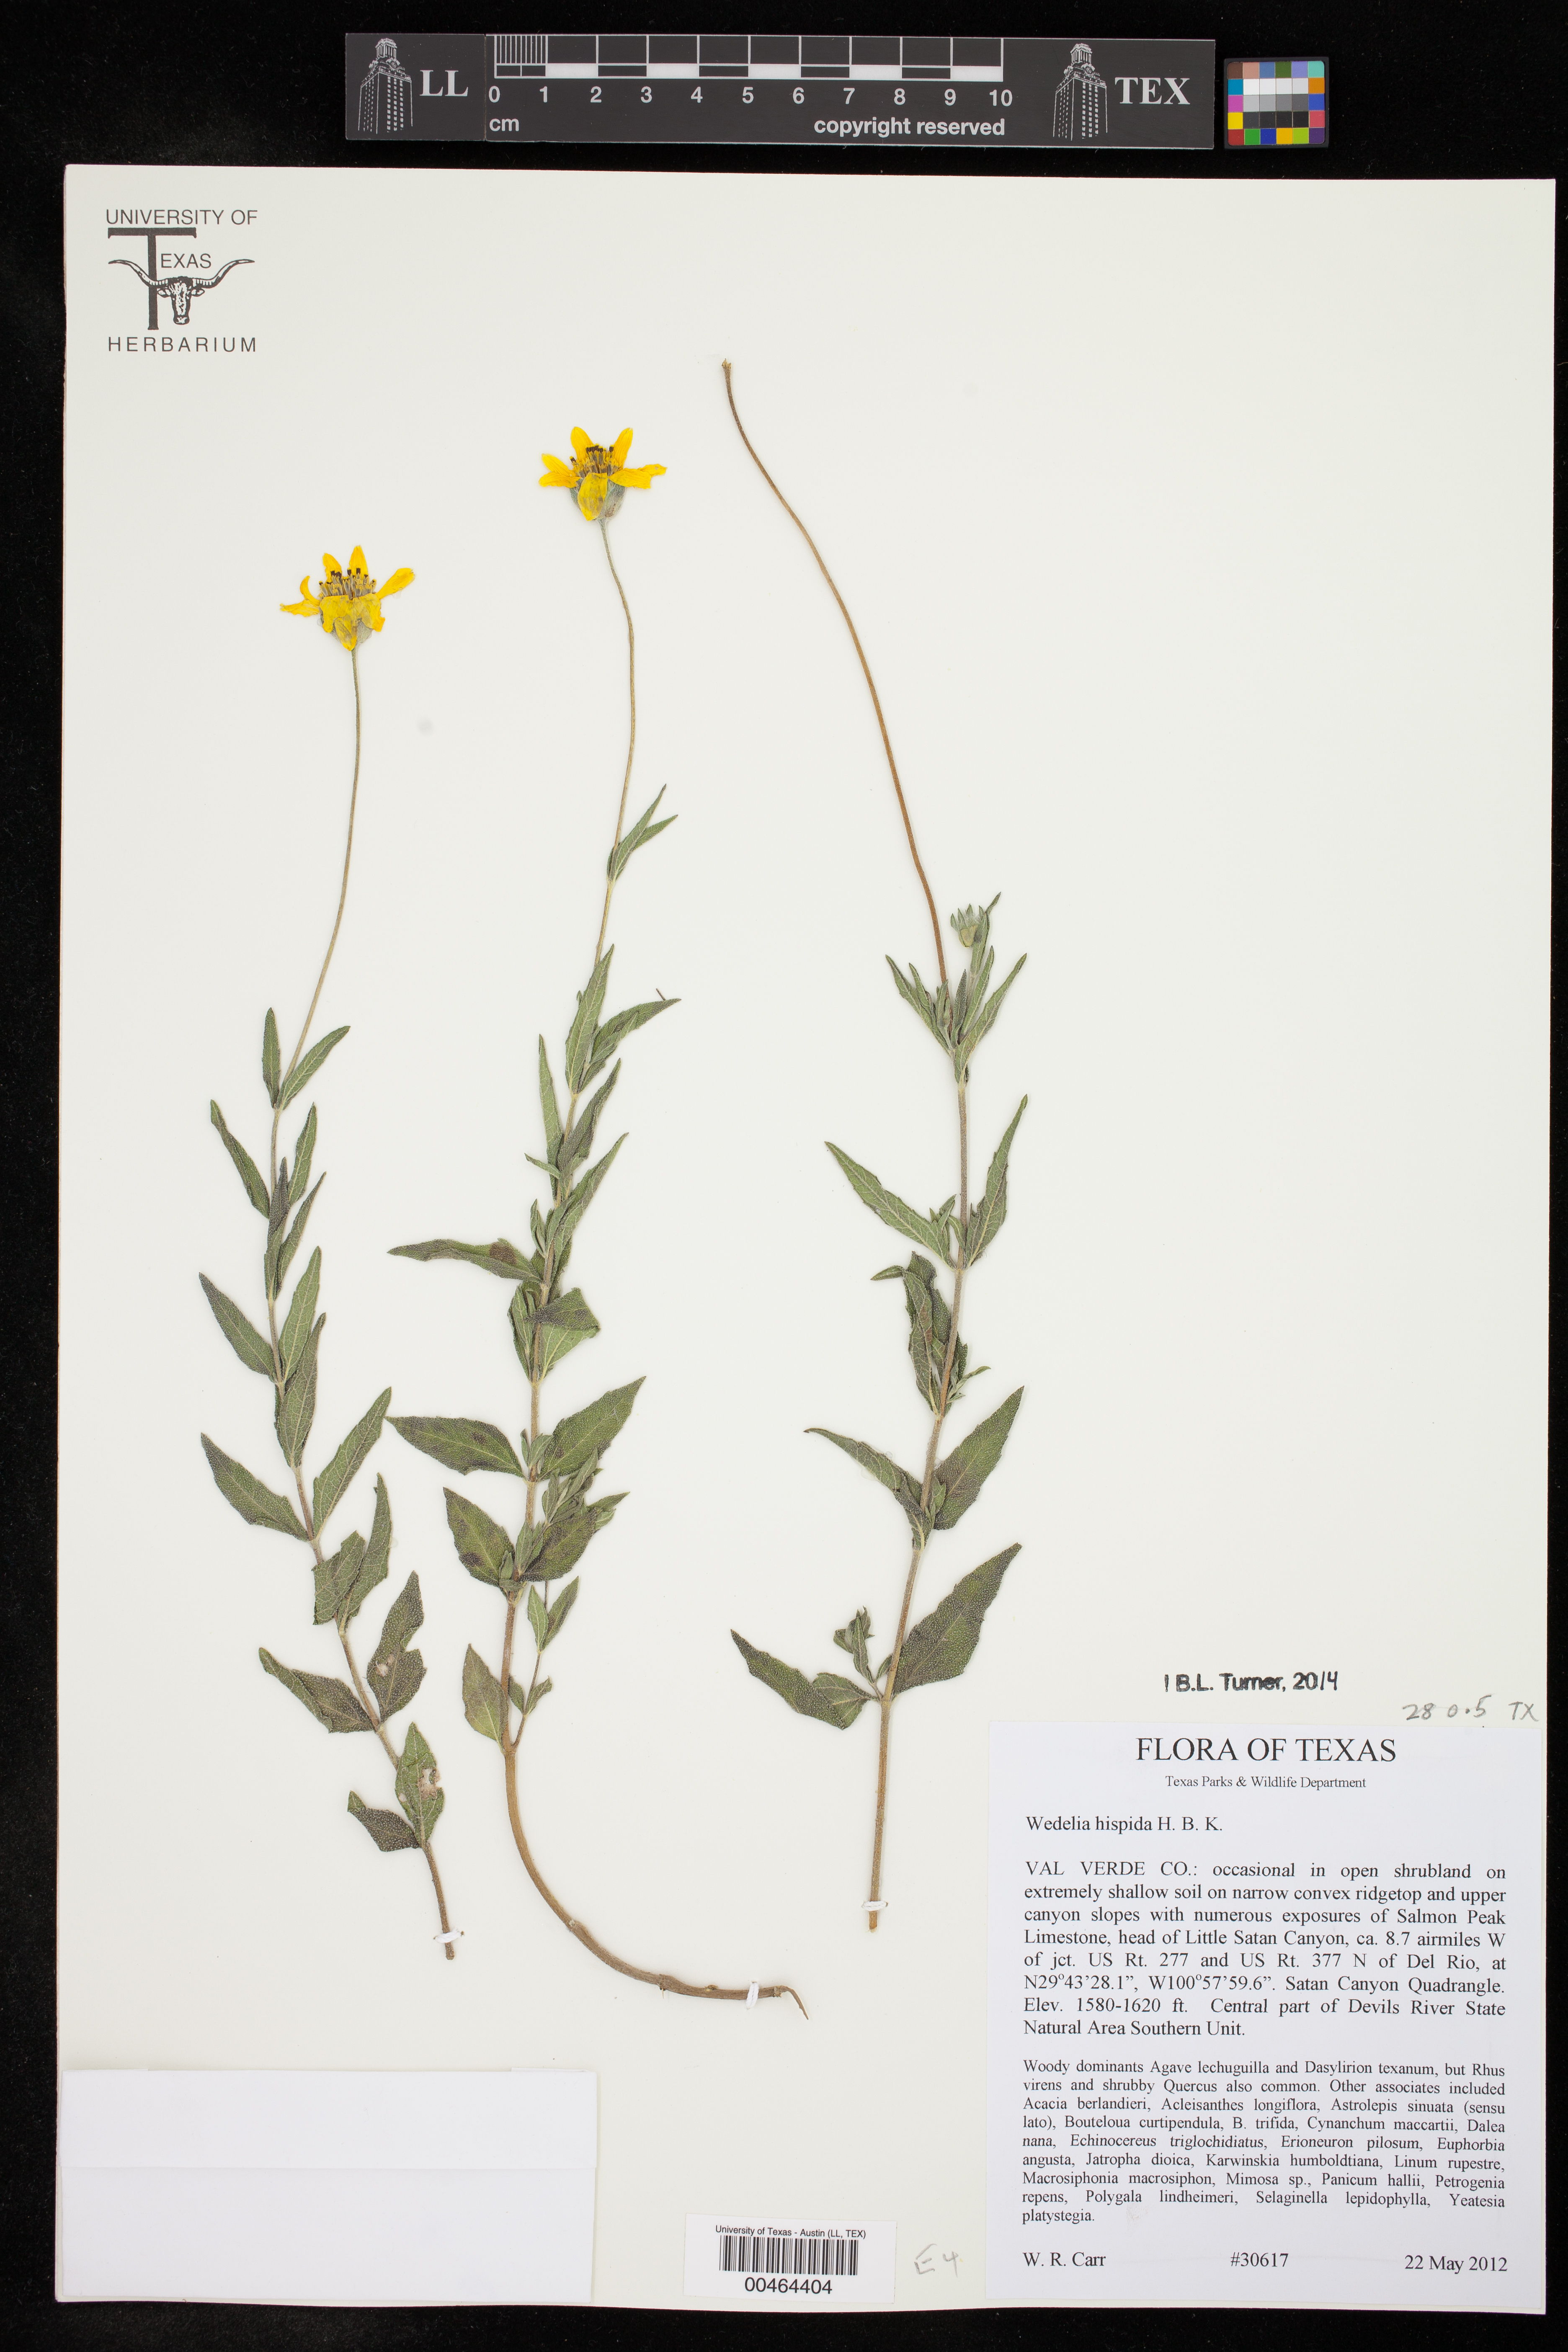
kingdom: Plantae
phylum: Tracheophyta
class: Magnoliopsida
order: Asterales
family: Asteraceae
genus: Wedelia
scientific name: Wedelia acapulcensis
